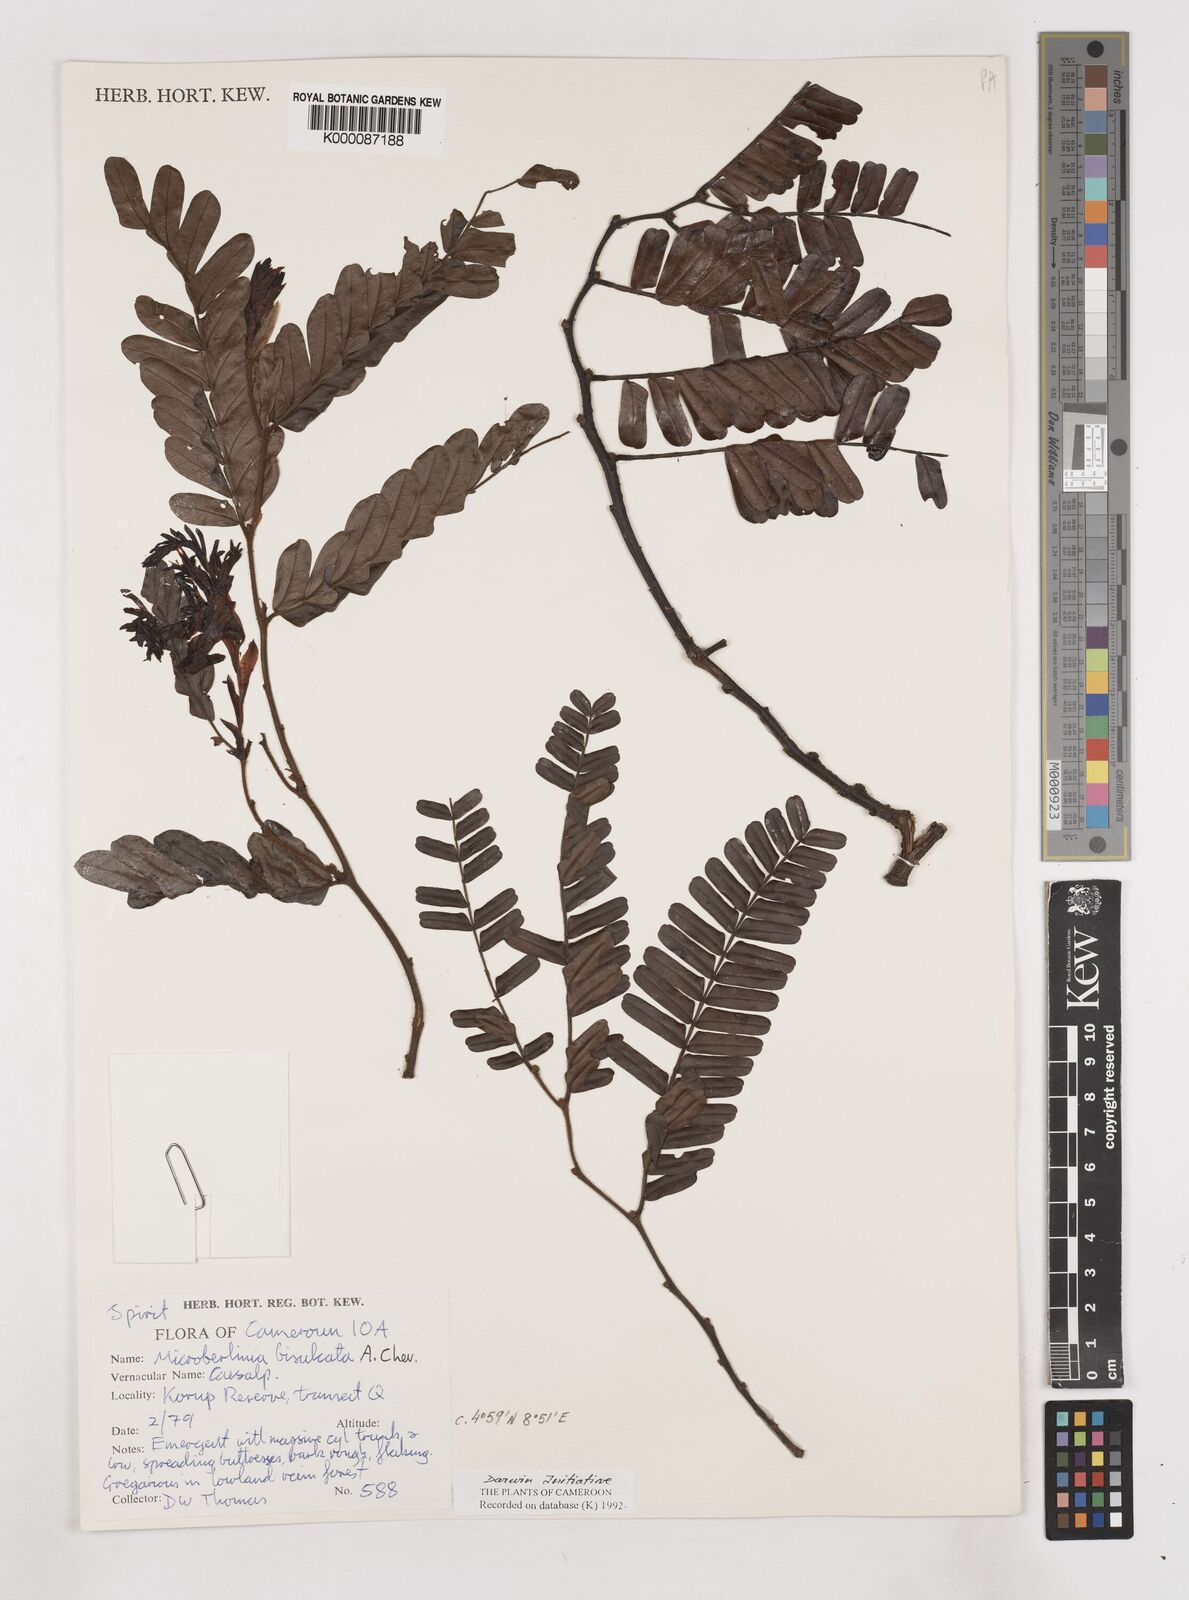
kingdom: Plantae
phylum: Tracheophyta
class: Magnoliopsida
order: Fabales
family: Fabaceae
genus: Microberlinia
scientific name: Microberlinia bisulcata
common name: Zingana
